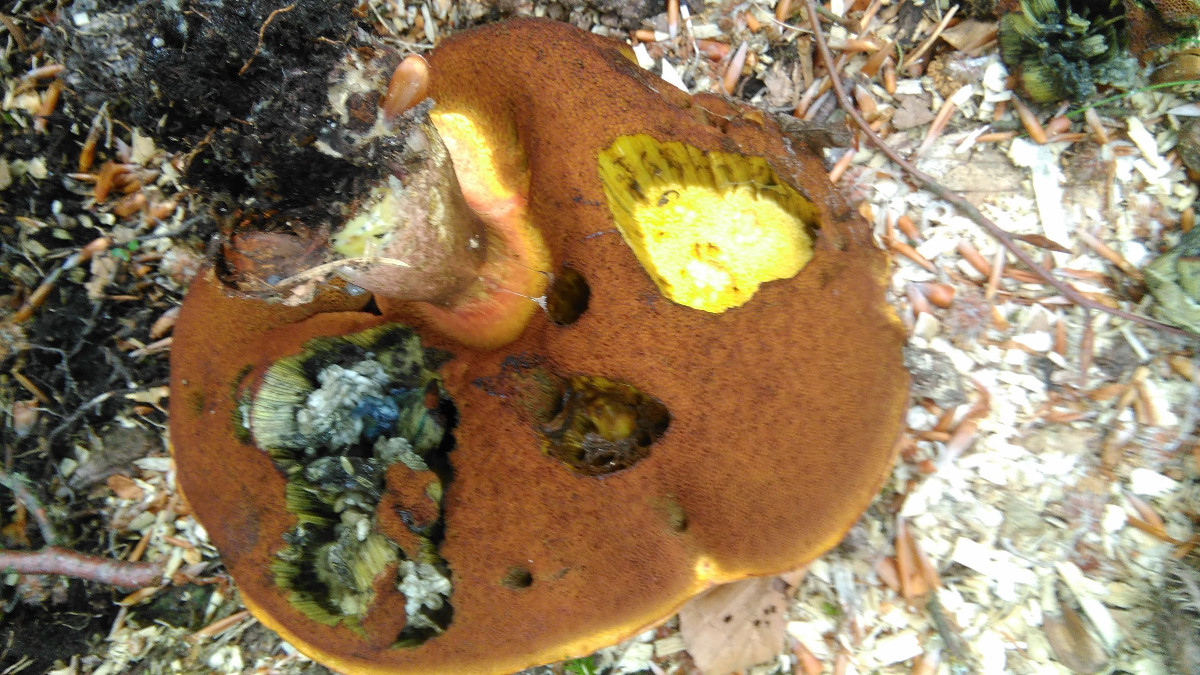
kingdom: Fungi
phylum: Basidiomycota
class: Agaricomycetes
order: Boletales
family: Boletaceae
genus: Neoboletus
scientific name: Neoboletus erythropus
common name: punktstokket indigorørhat
